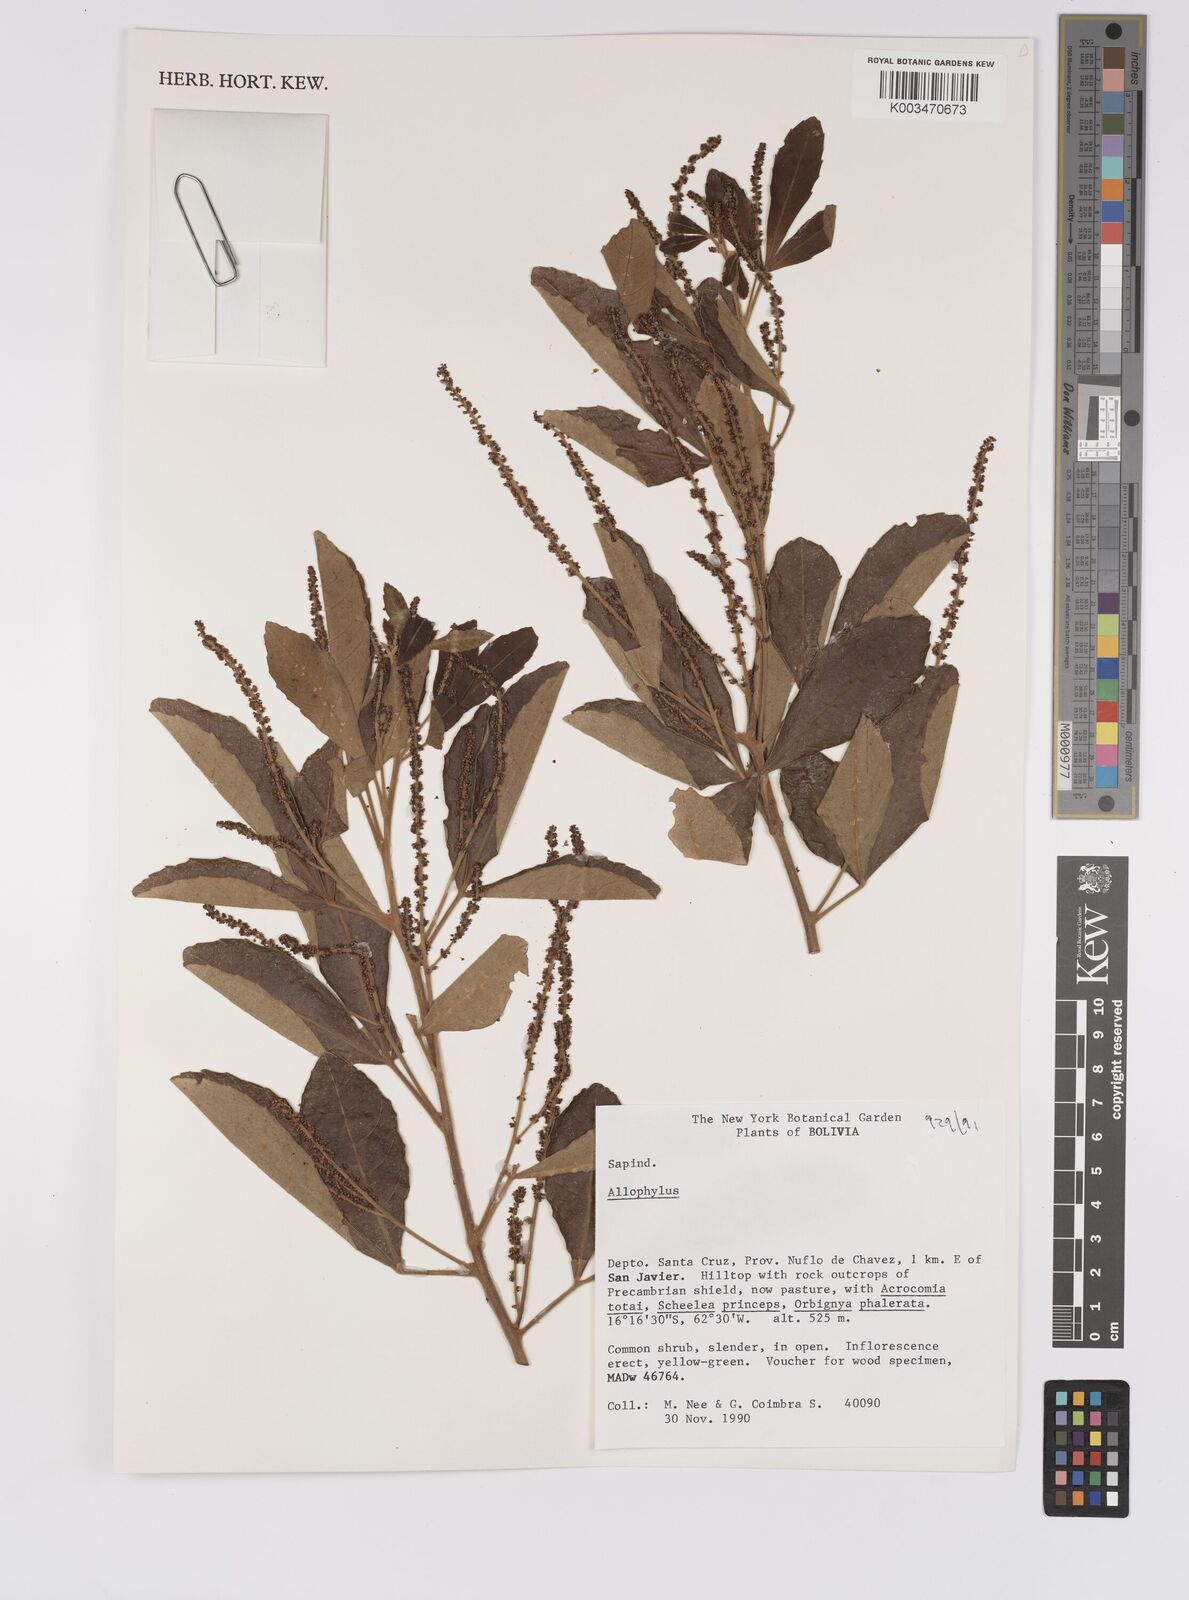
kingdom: Plantae
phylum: Tracheophyta
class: Magnoliopsida
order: Sapindales
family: Sapindaceae
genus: Allophylus
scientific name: Allophylus
